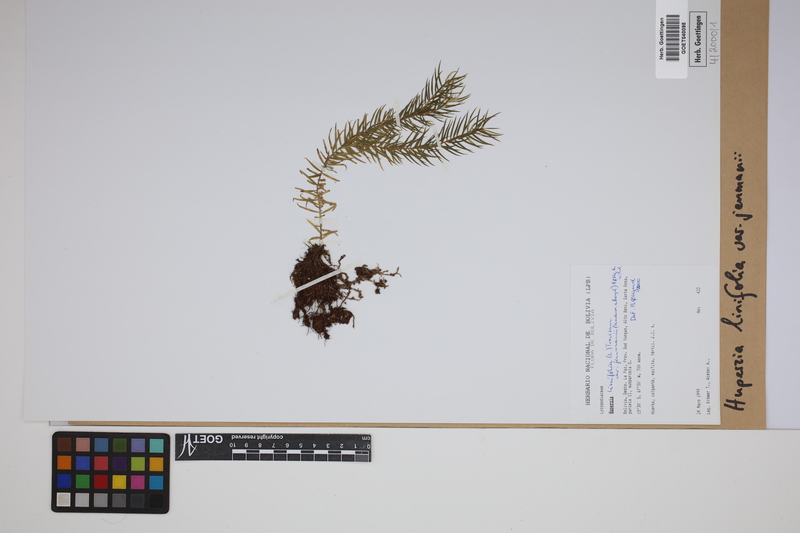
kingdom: Plantae
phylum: Tracheophyta
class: Lycopodiopsida
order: Lycopodiales
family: Lycopodiaceae
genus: Phlegmariurus
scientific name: Phlegmariurus linifolius
